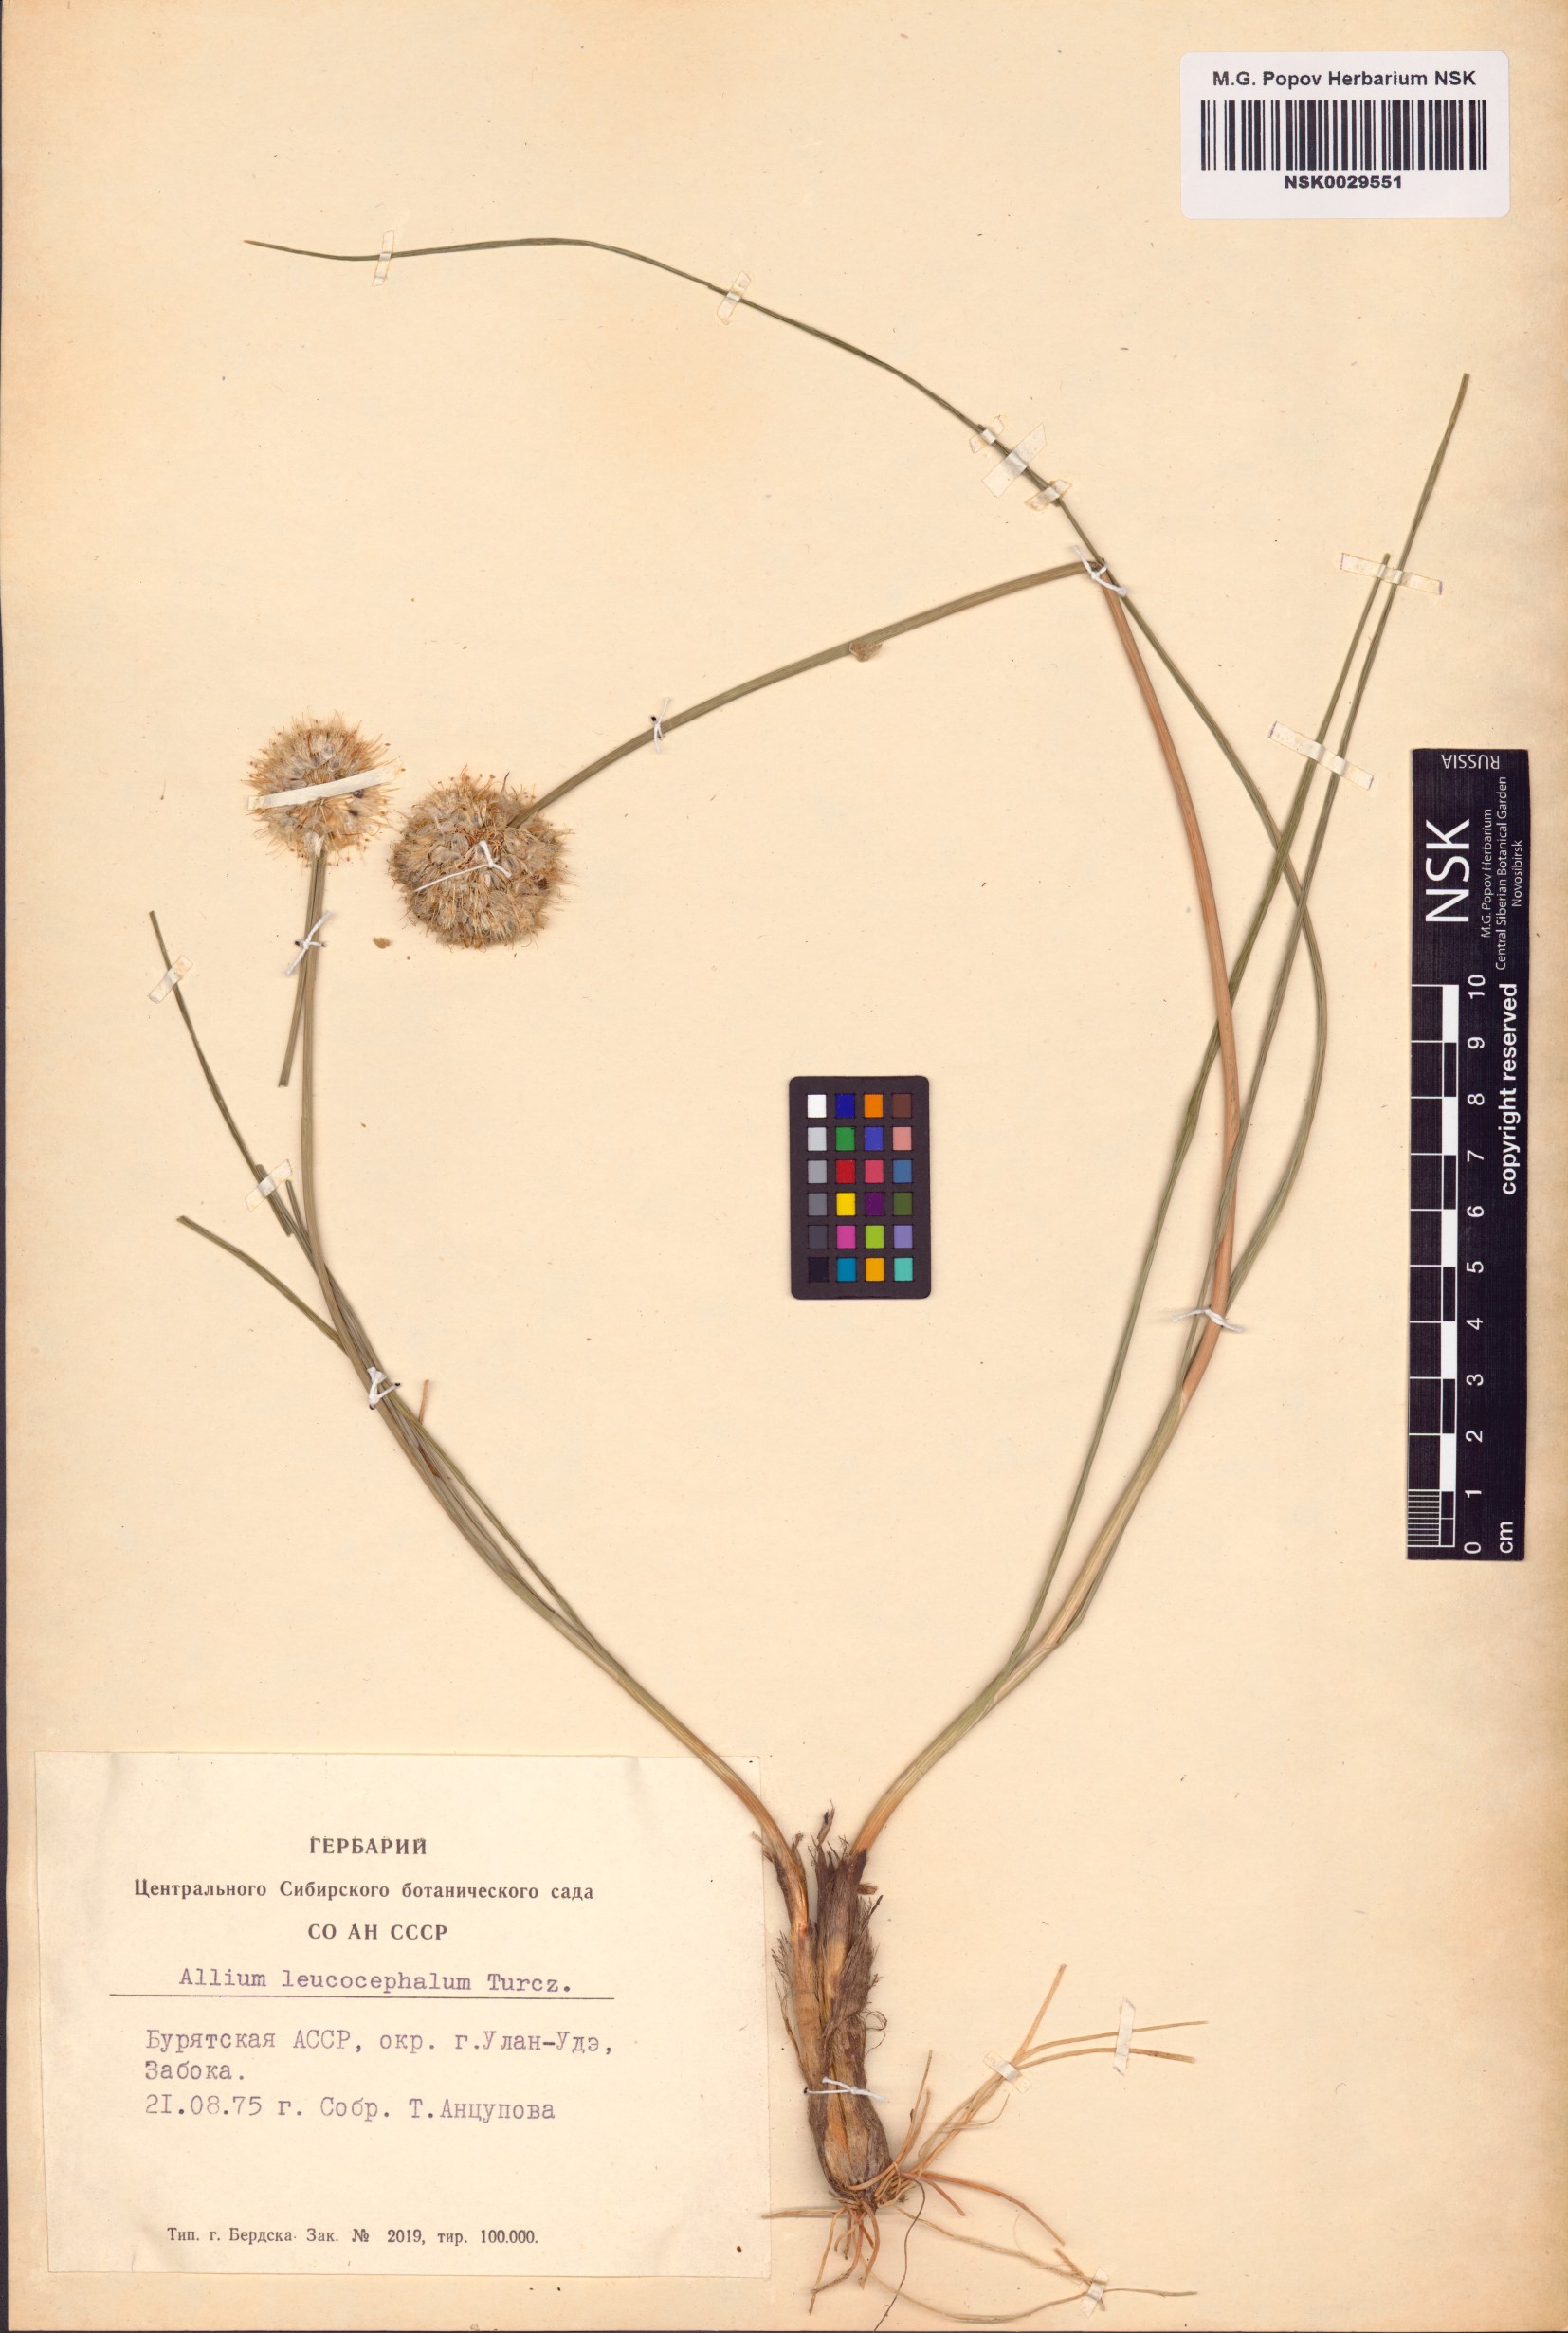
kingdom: Plantae
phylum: Tracheophyta
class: Liliopsida
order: Asparagales
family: Amaryllidaceae
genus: Allium
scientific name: Allium leucocephalum
